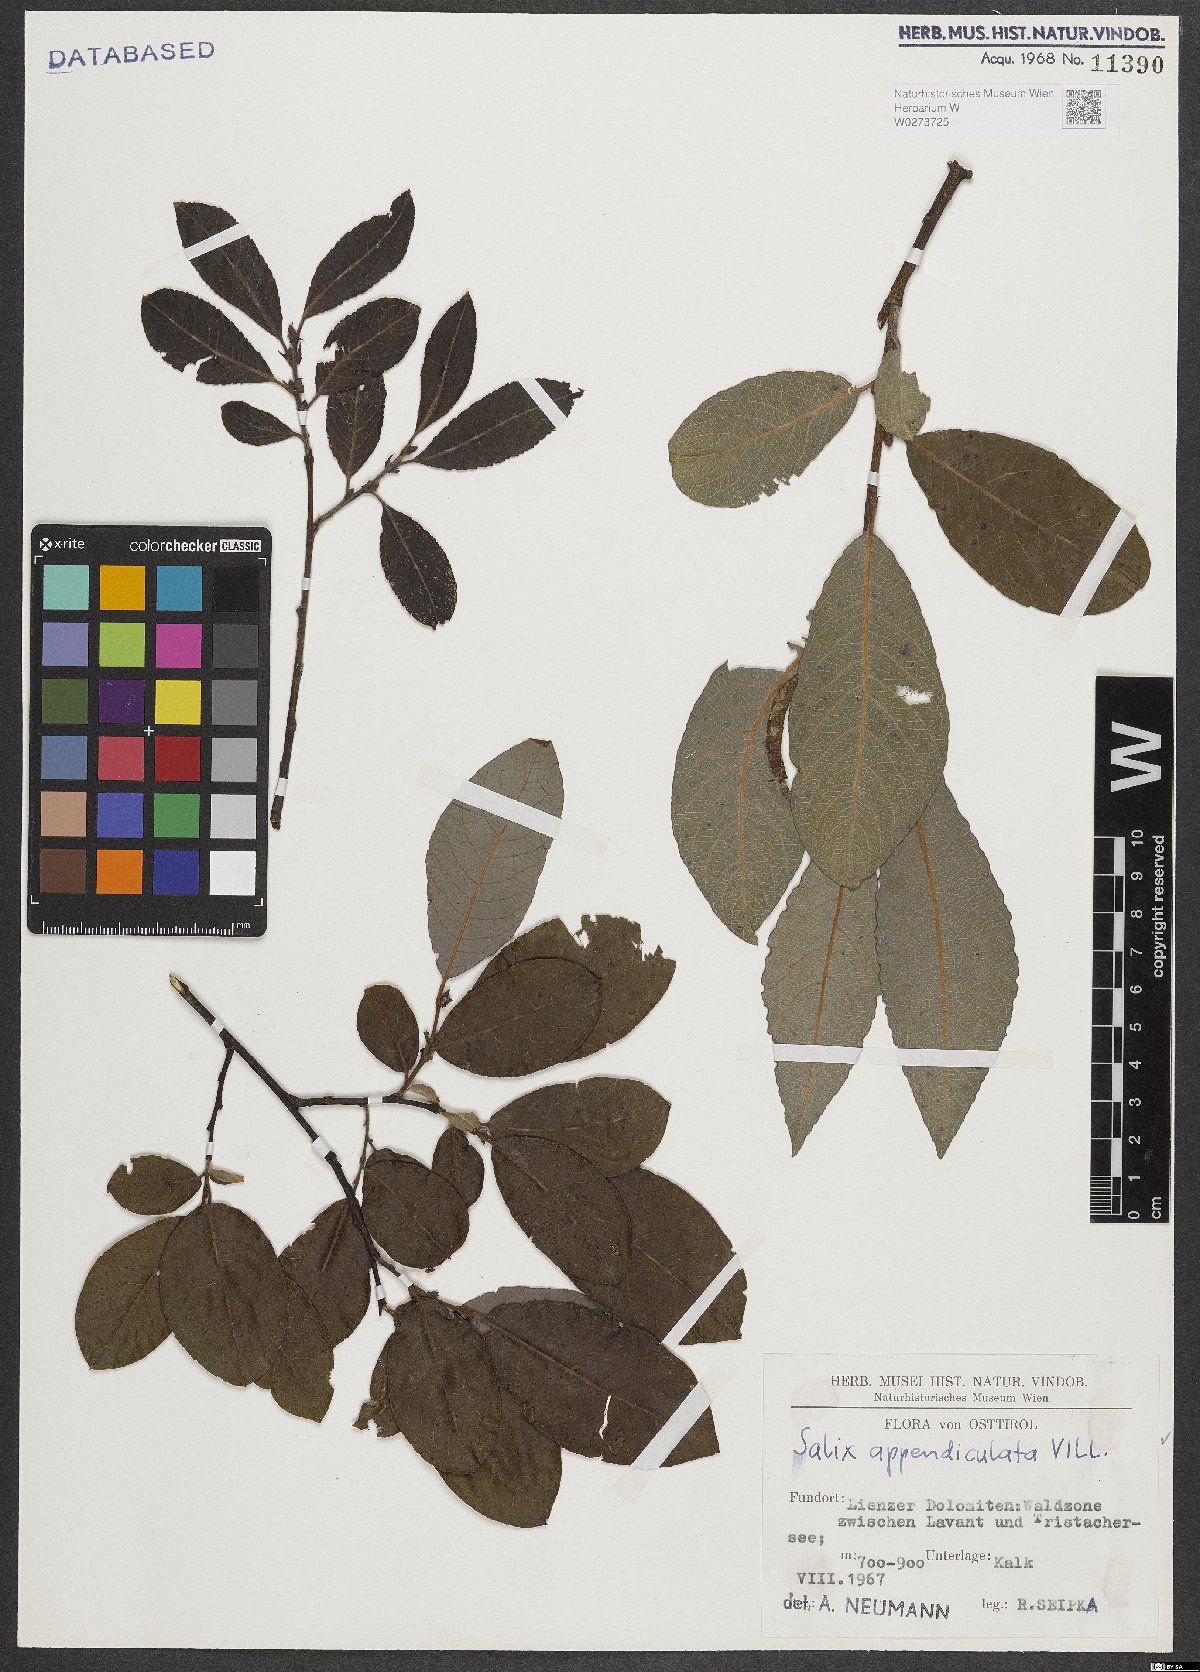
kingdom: Plantae
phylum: Tracheophyta
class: Magnoliopsida
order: Malpighiales
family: Salicaceae
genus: Salix
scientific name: Salix appendiculata
